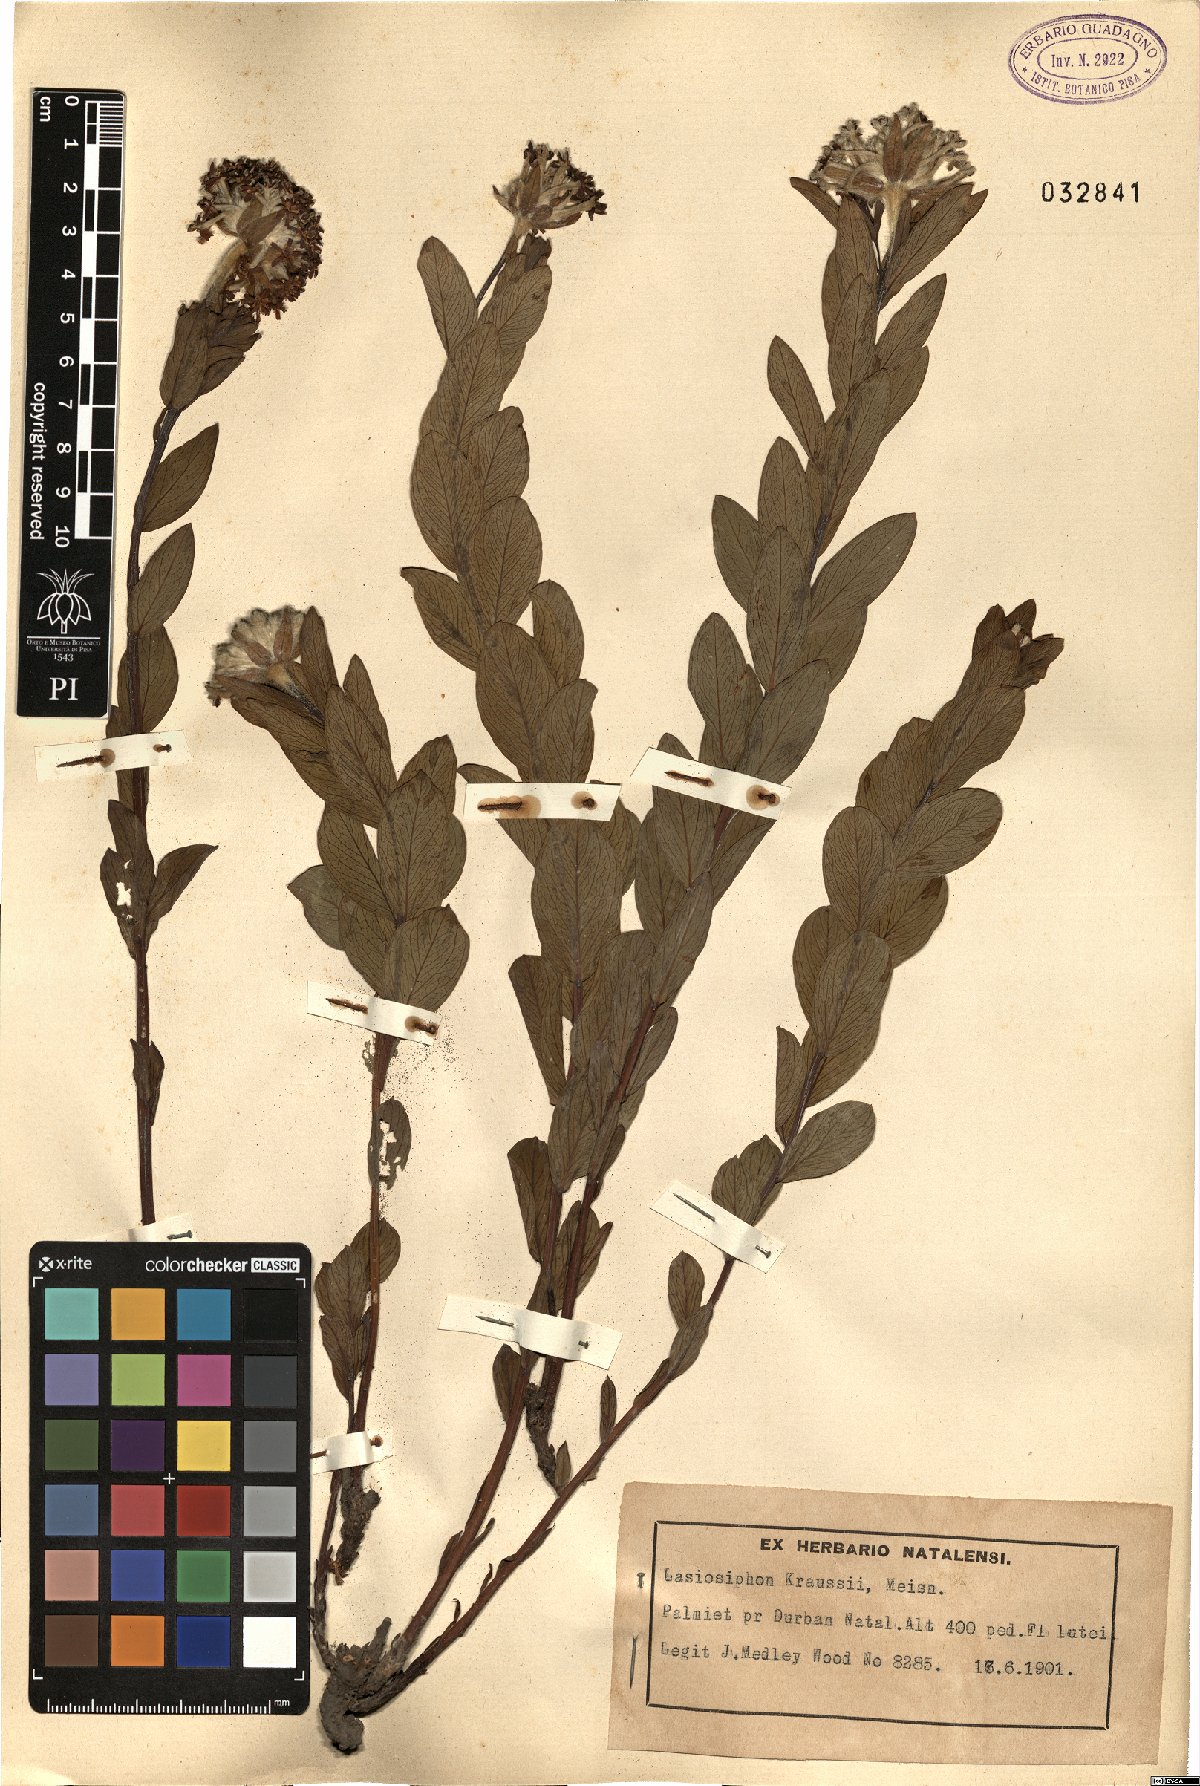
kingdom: Plantae
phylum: Tracheophyta
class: Magnoliopsida
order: Malvales
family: Thymelaeaceae
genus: Gnidia
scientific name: Gnidia kraussiana
